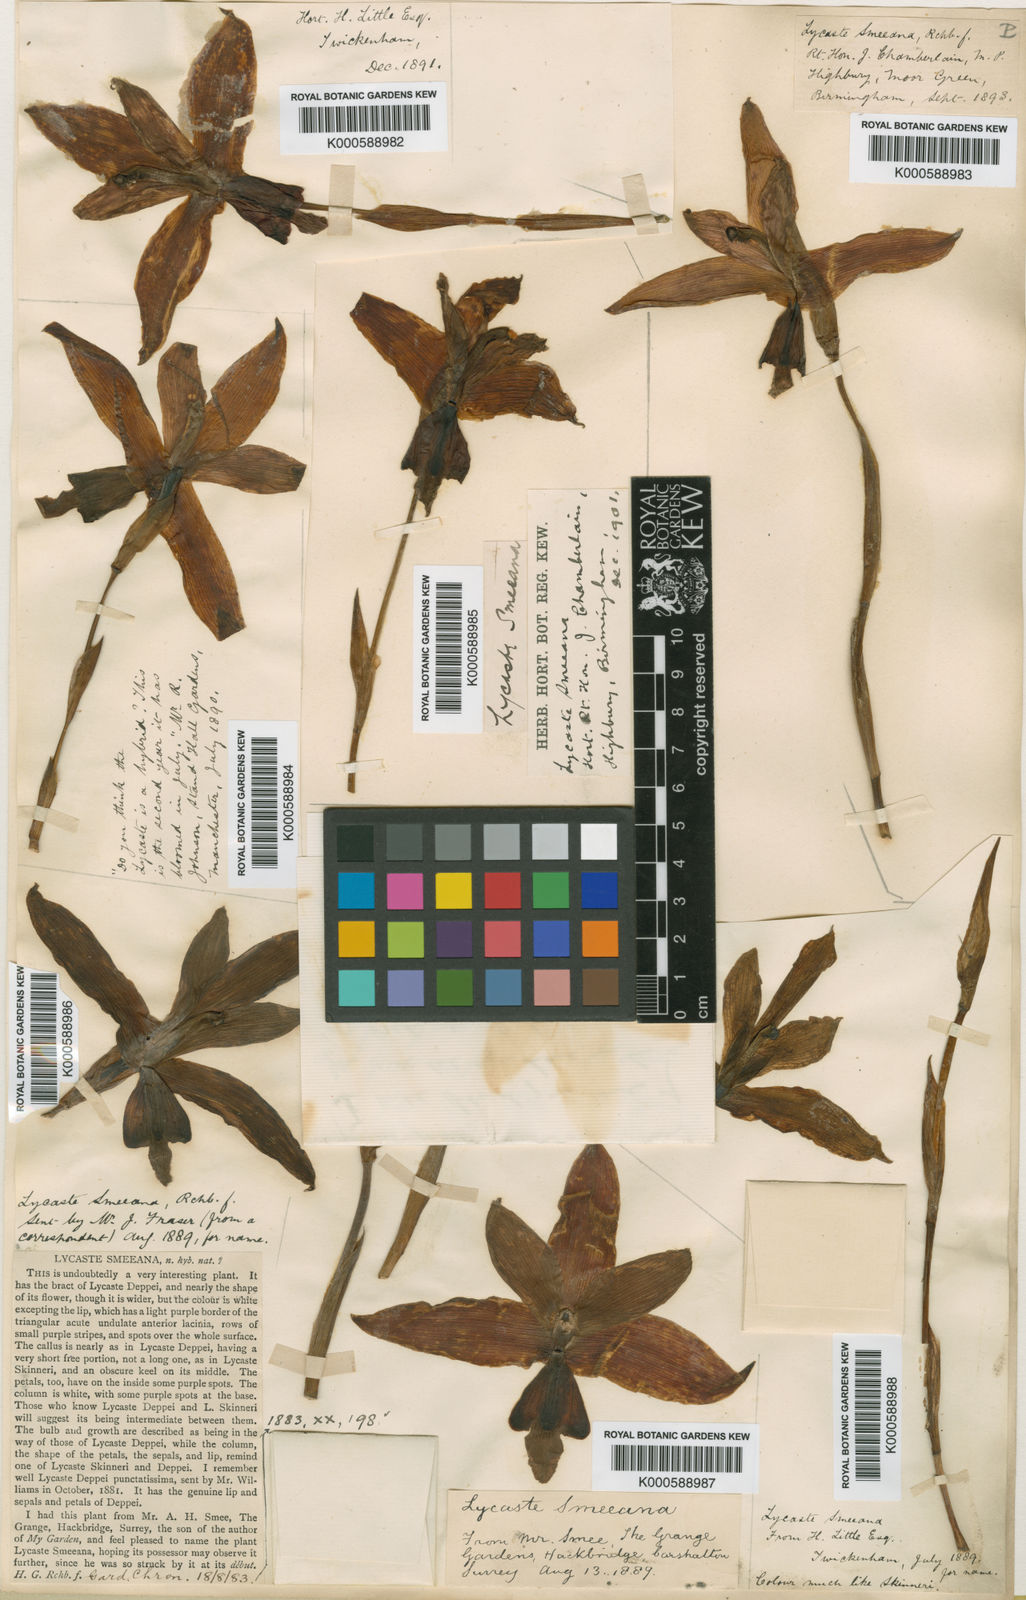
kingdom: Plantae
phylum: Tracheophyta
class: Liliopsida
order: Asparagales
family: Orchidaceae
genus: Lycaste
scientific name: Lycaste smeeana
